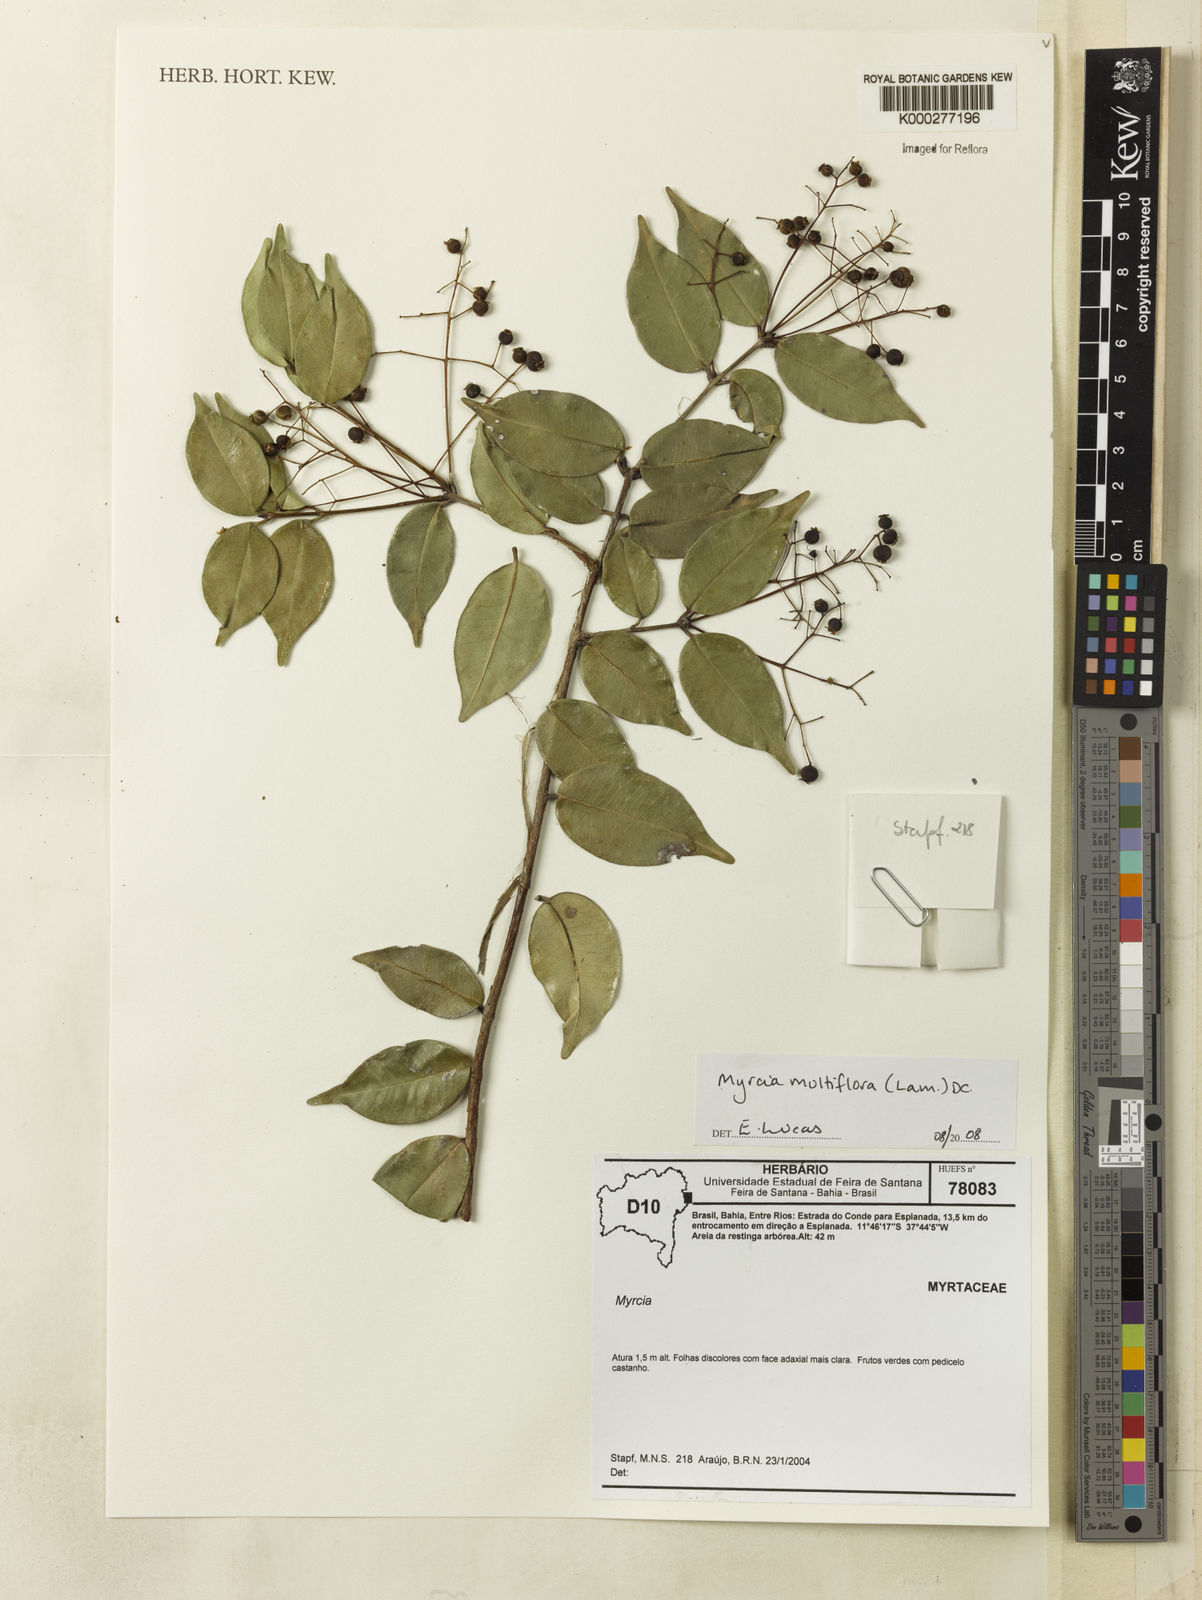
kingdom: Plantae
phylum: Tracheophyta
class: Magnoliopsida
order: Myrtales
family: Myrtaceae
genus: Myrcia
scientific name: Myrcia multiflora
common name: Pedra hume
